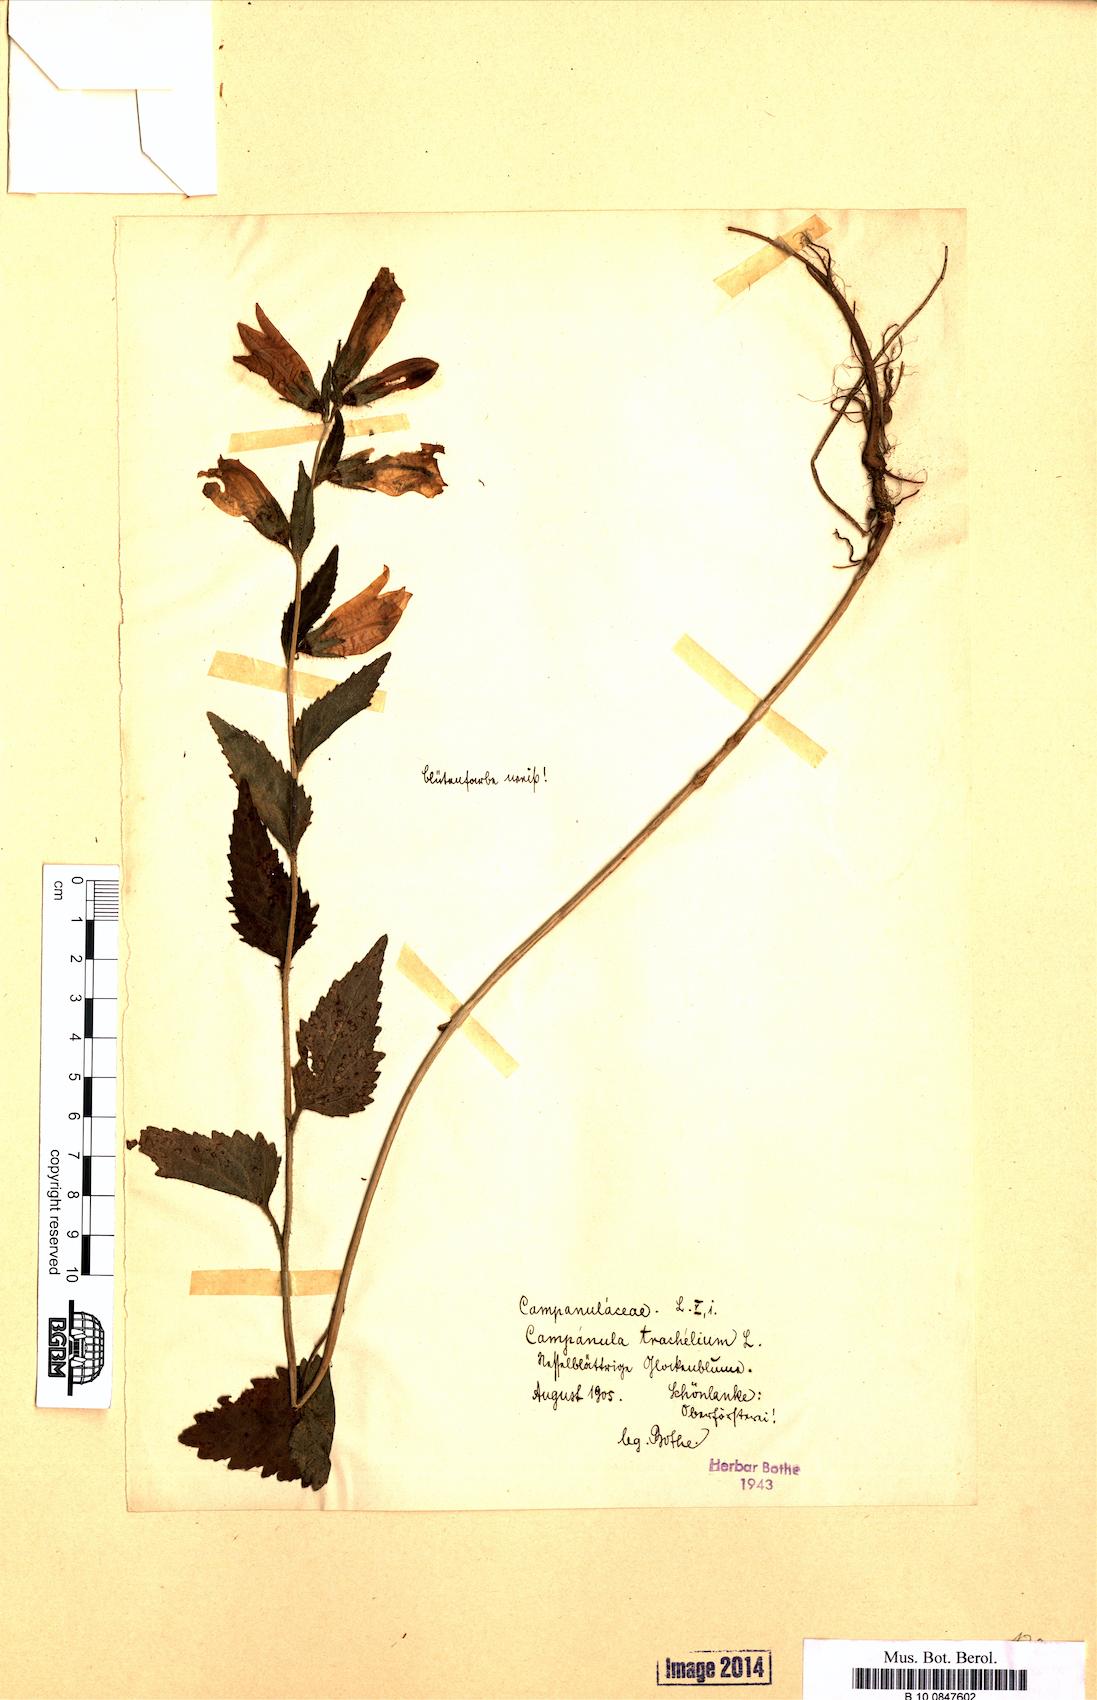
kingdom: Plantae
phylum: Tracheophyta
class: Magnoliopsida
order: Asterales
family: Campanulaceae
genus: Campanula
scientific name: Campanula trachelium
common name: Nettle-leaved bellflower
